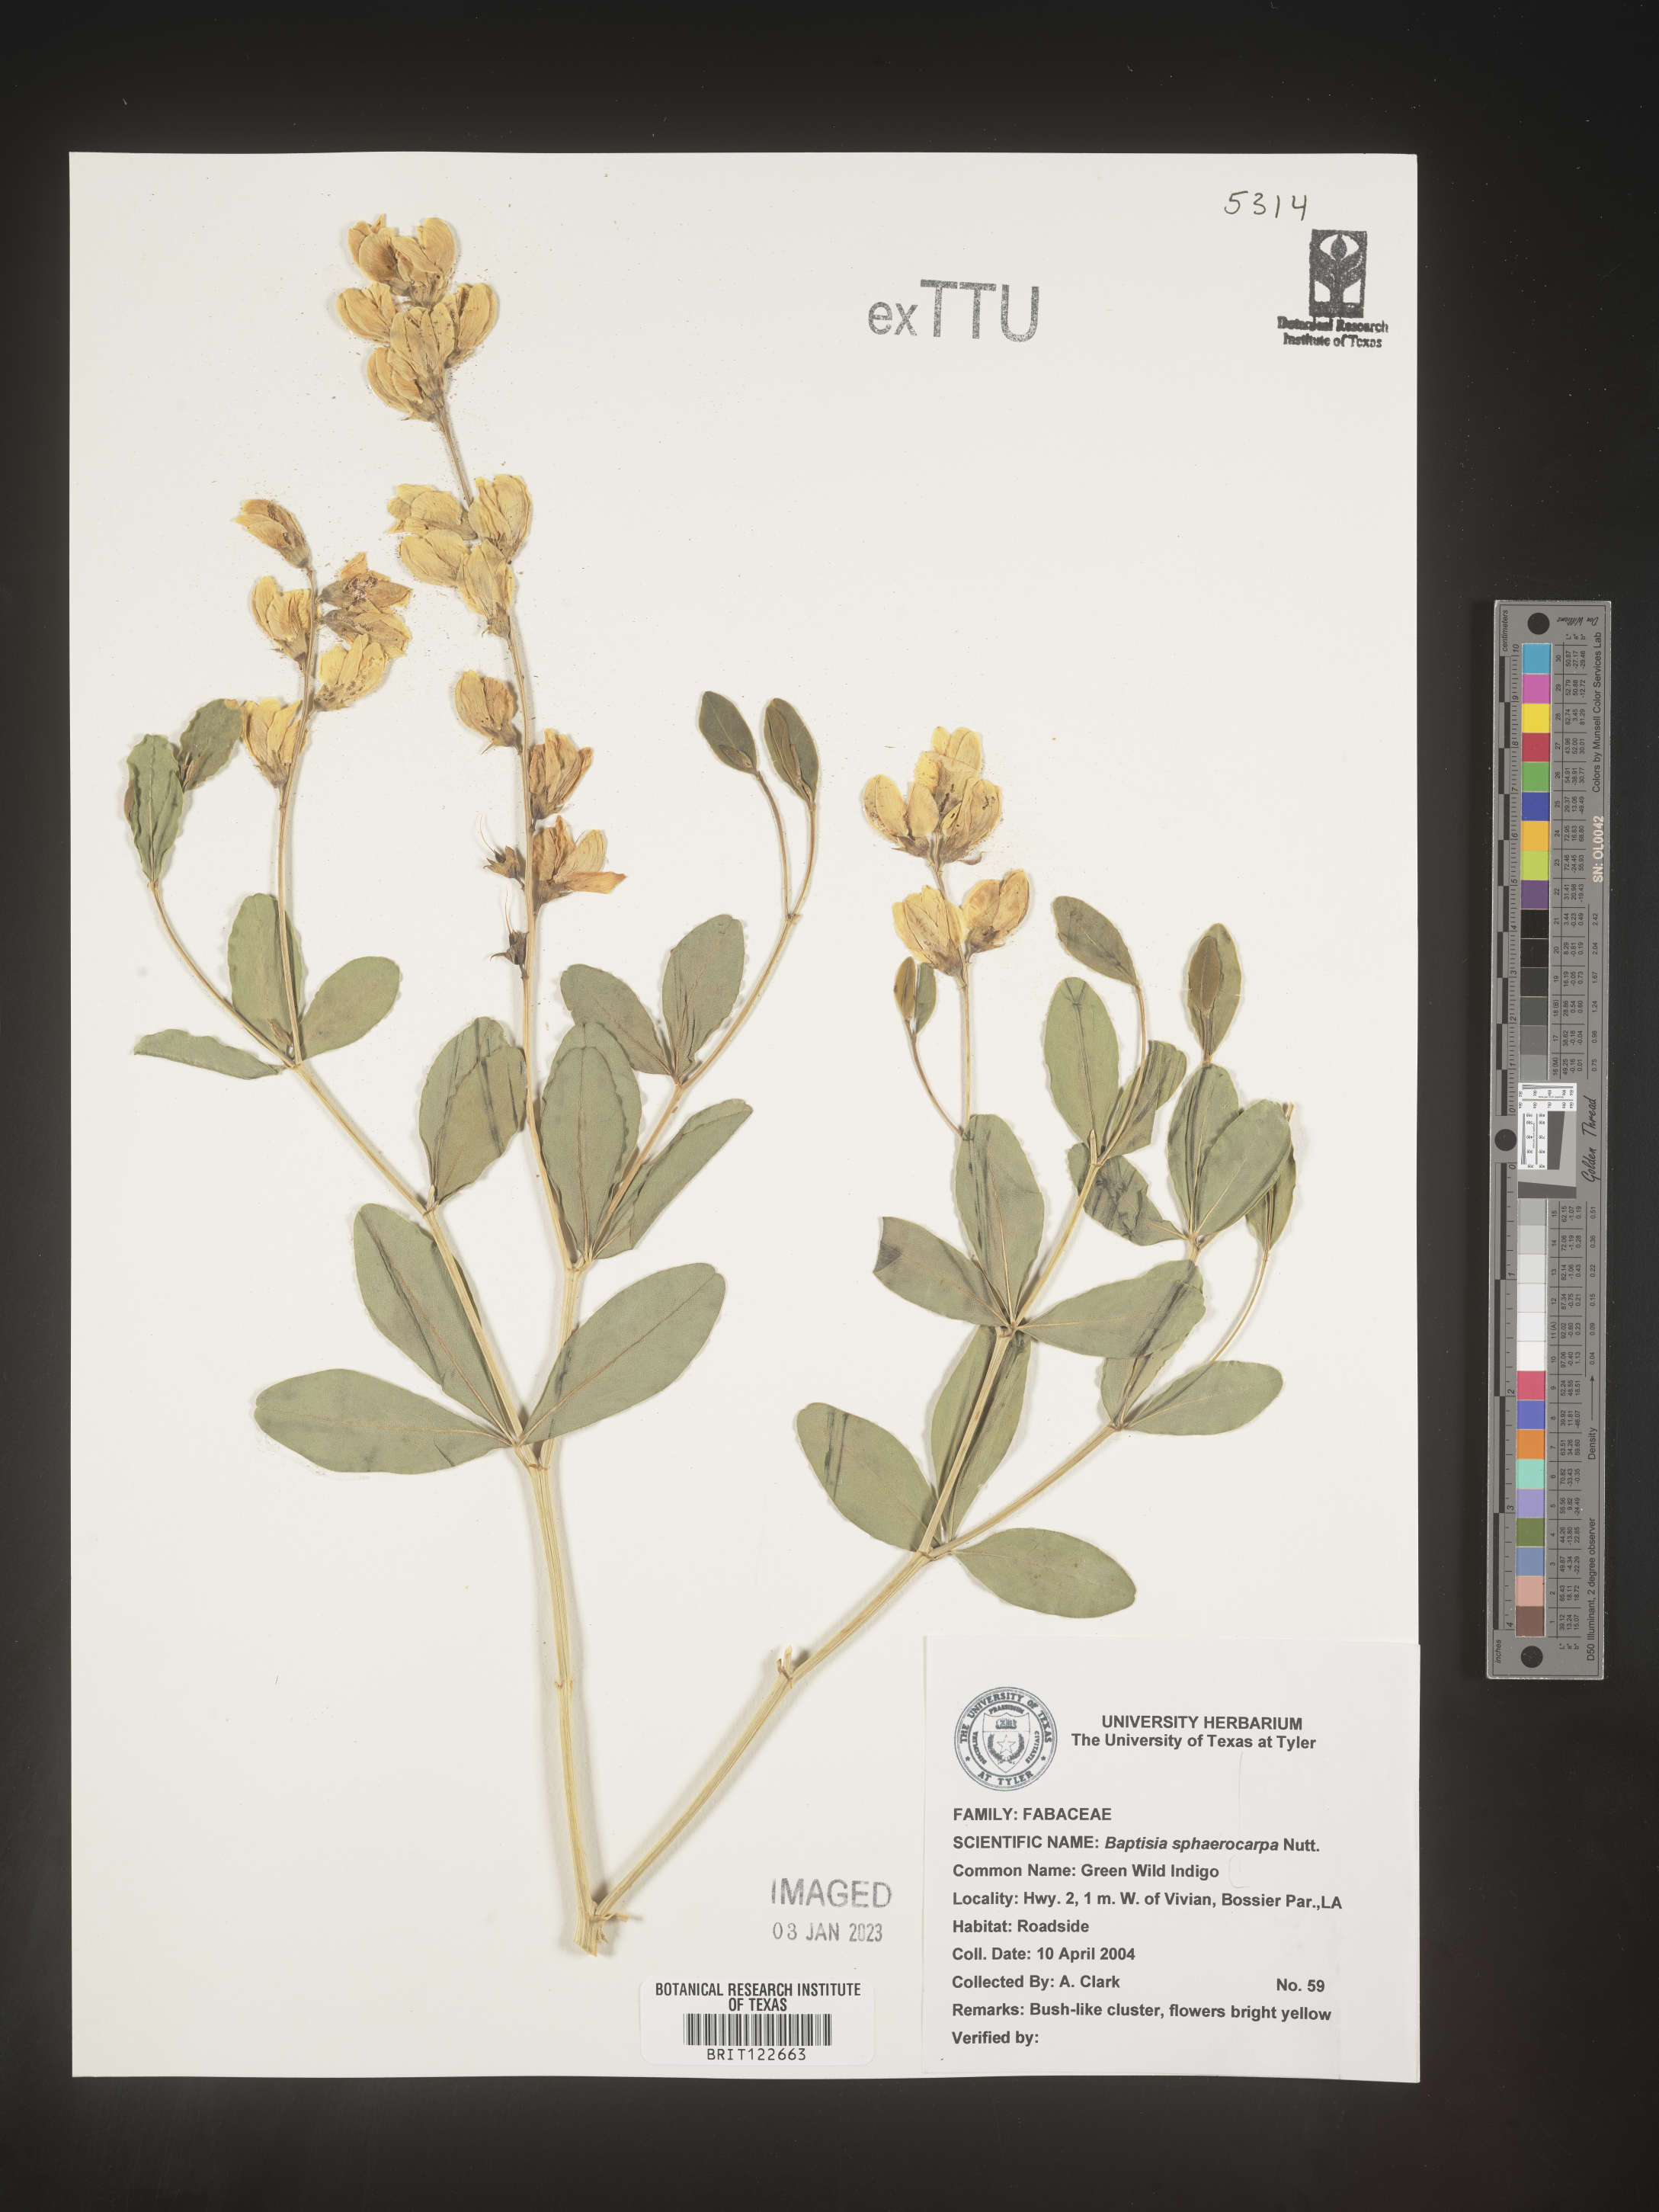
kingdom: Plantae
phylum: Tracheophyta
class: Magnoliopsida
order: Fabales
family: Fabaceae
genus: Baptisia
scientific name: Baptisia sphaerocarpa
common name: Round wild indigo
